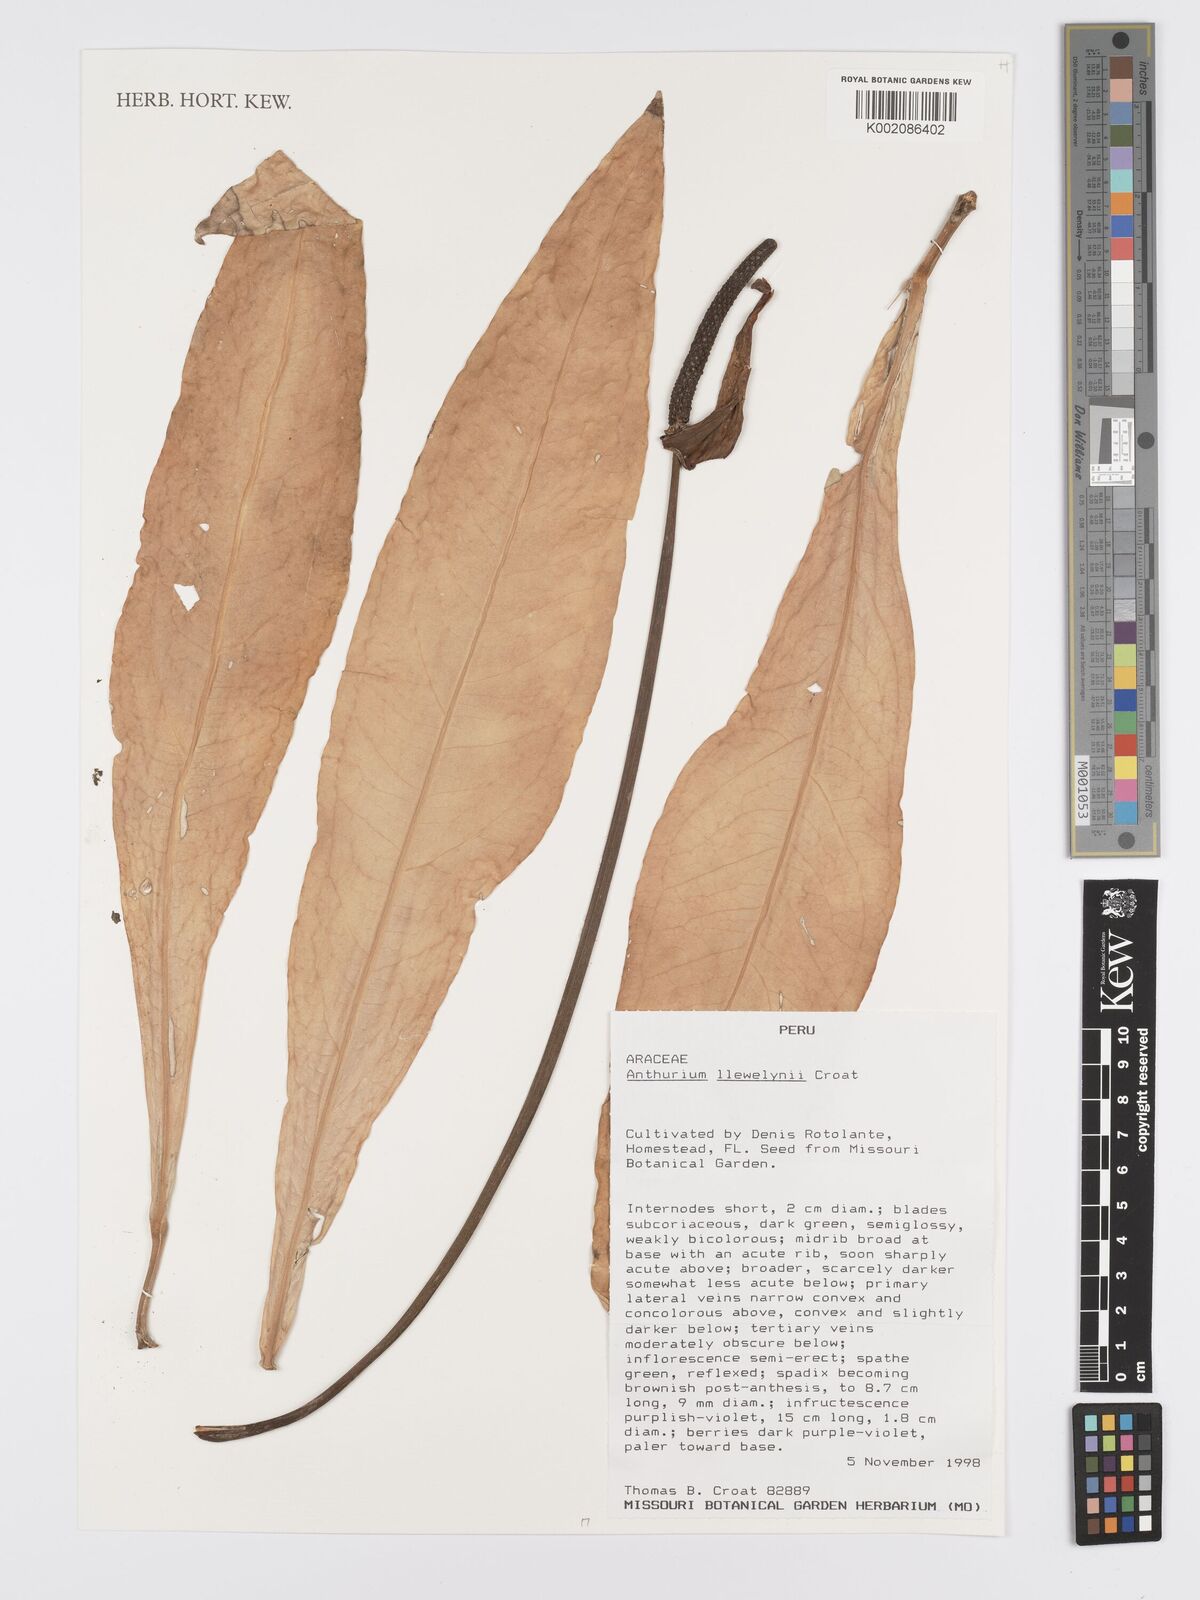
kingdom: Plantae
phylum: Tracheophyta
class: Liliopsida
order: Alismatales
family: Araceae
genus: Anthurium
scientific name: Anthurium linganii
